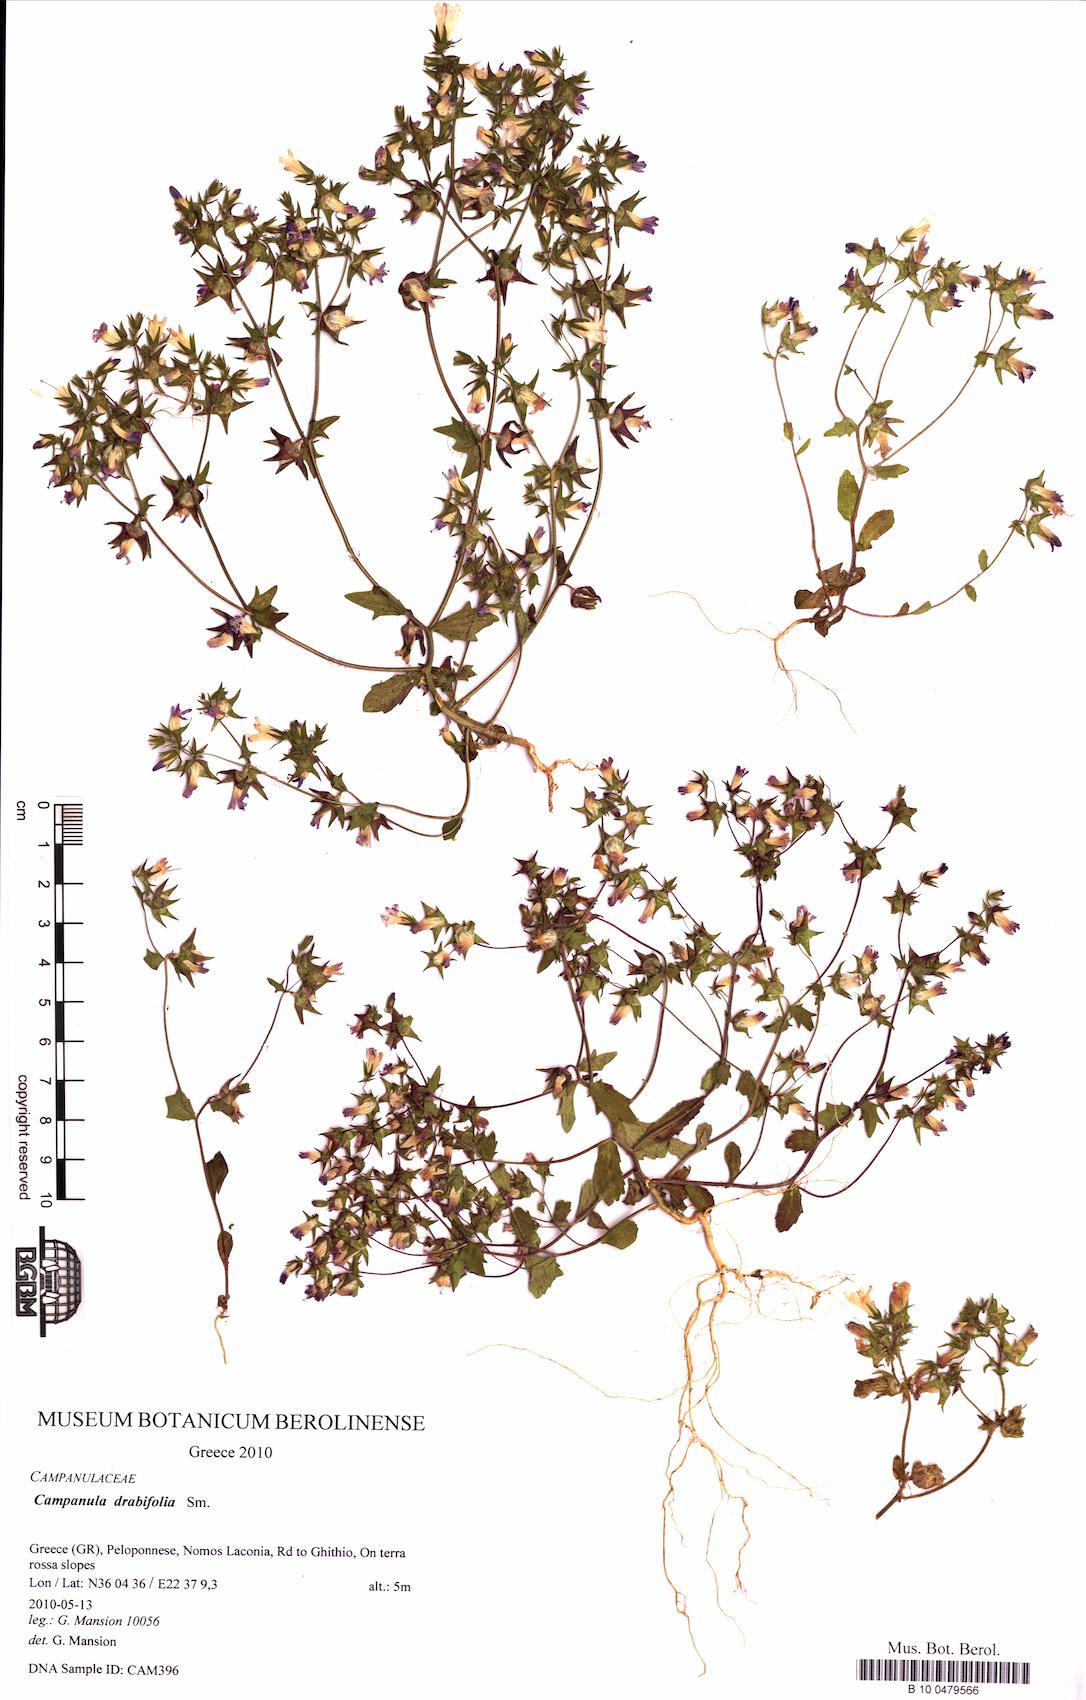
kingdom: Plantae
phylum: Tracheophyta
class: Magnoliopsida
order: Asterales
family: Campanulaceae
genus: Campanula
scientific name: Campanula drabifolia
